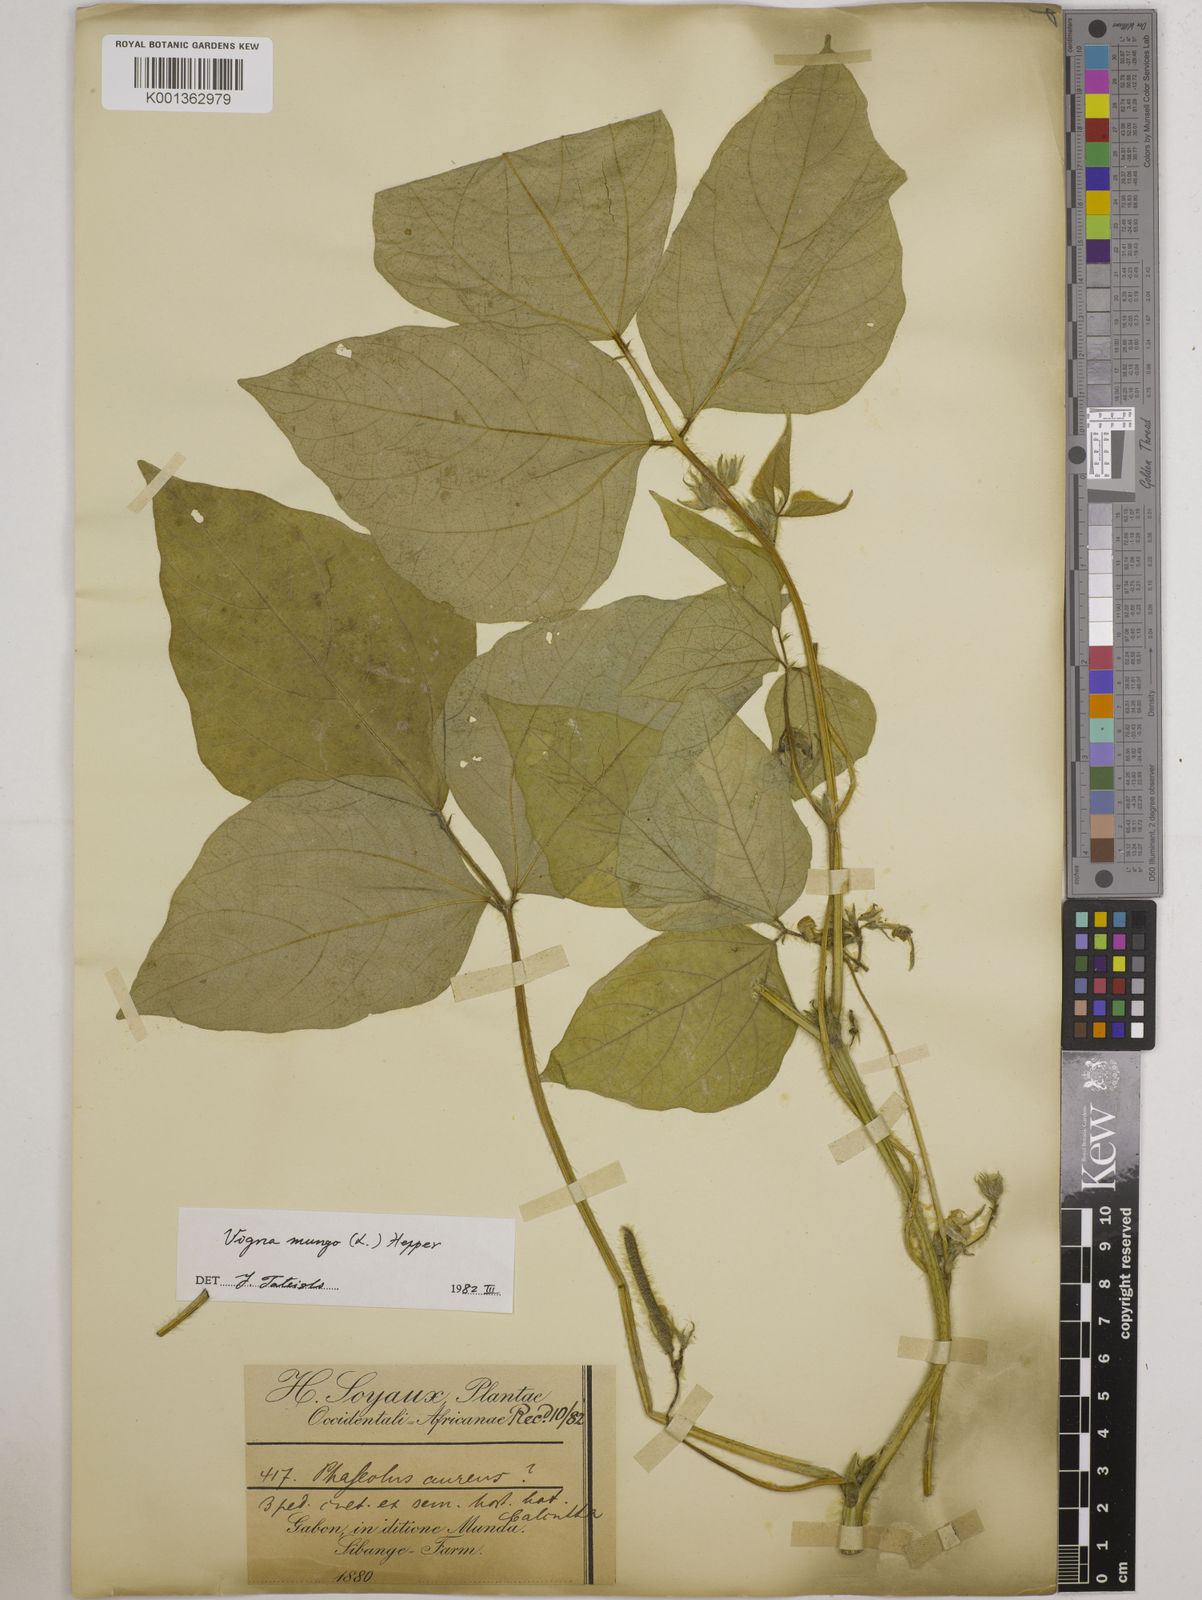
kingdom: Plantae
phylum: Tracheophyta
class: Magnoliopsida
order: Fabales
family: Fabaceae
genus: Vigna
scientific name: Vigna mungo
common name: Black gram
